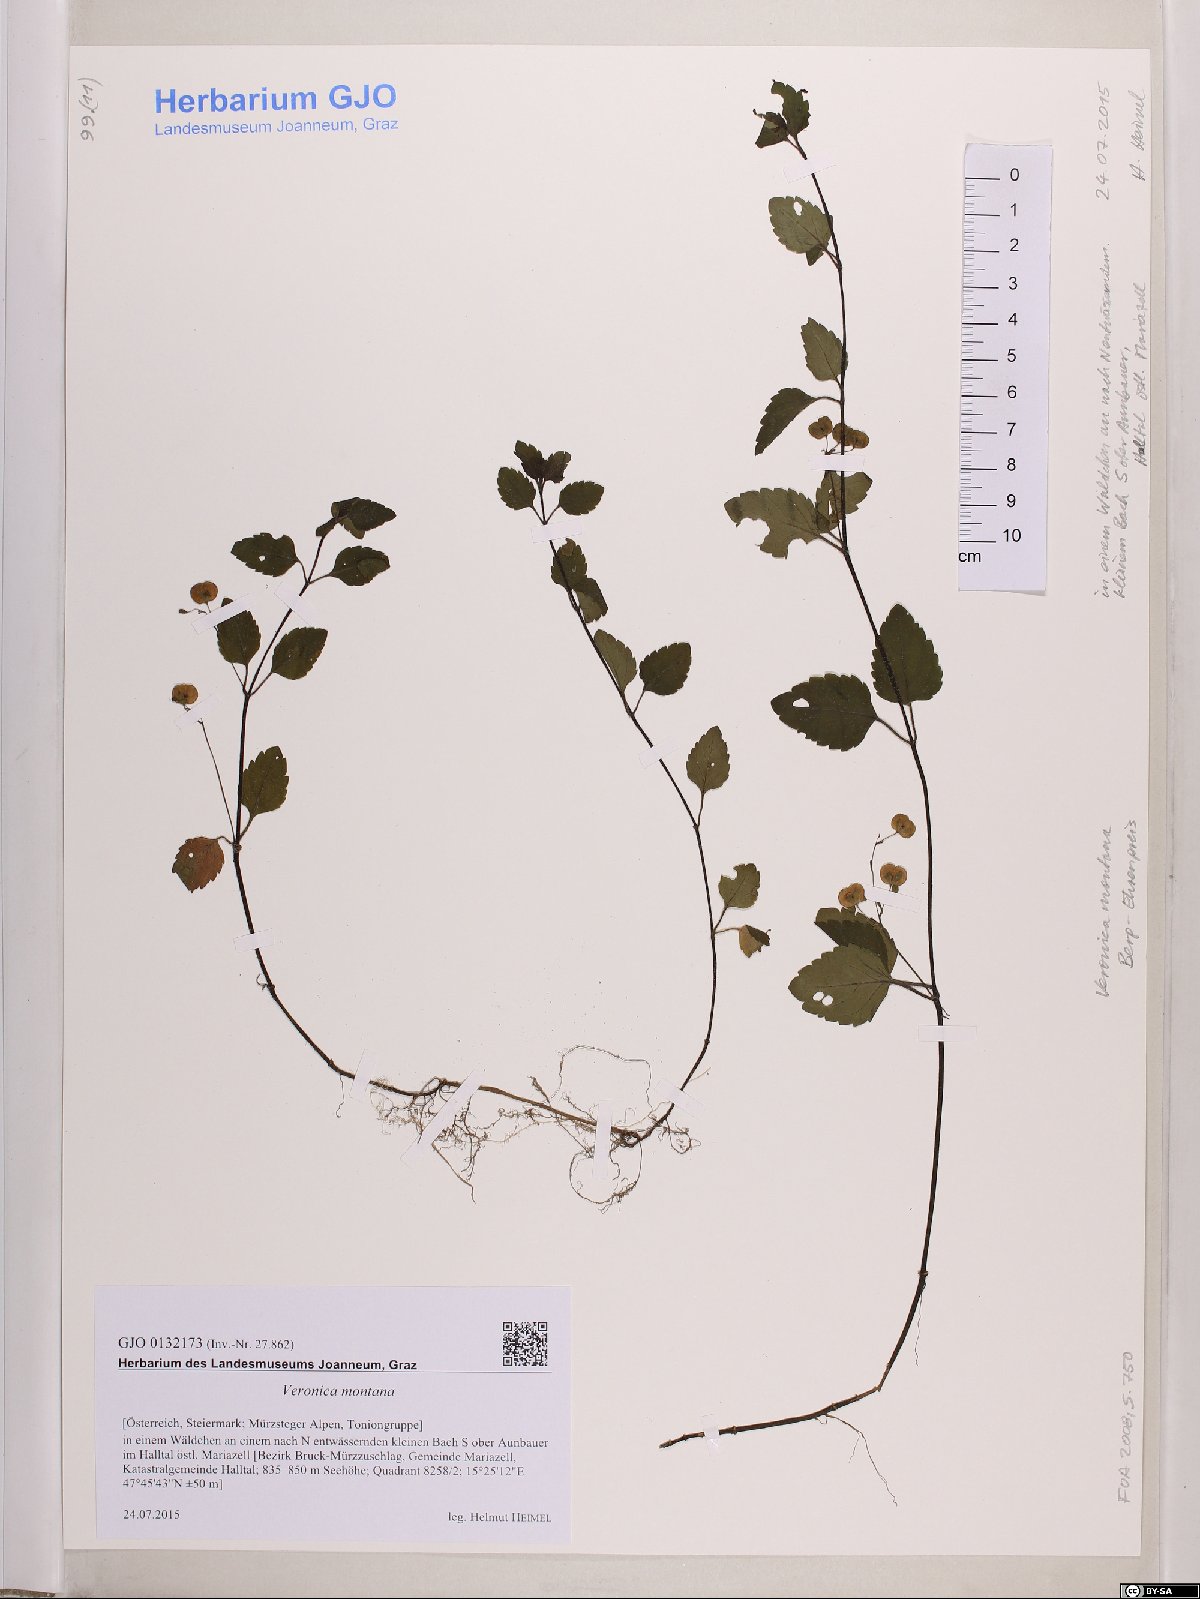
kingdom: Plantae
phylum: Tracheophyta
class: Magnoliopsida
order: Lamiales
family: Plantaginaceae
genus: Veronica
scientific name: Veronica montana
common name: Wood speedwell
